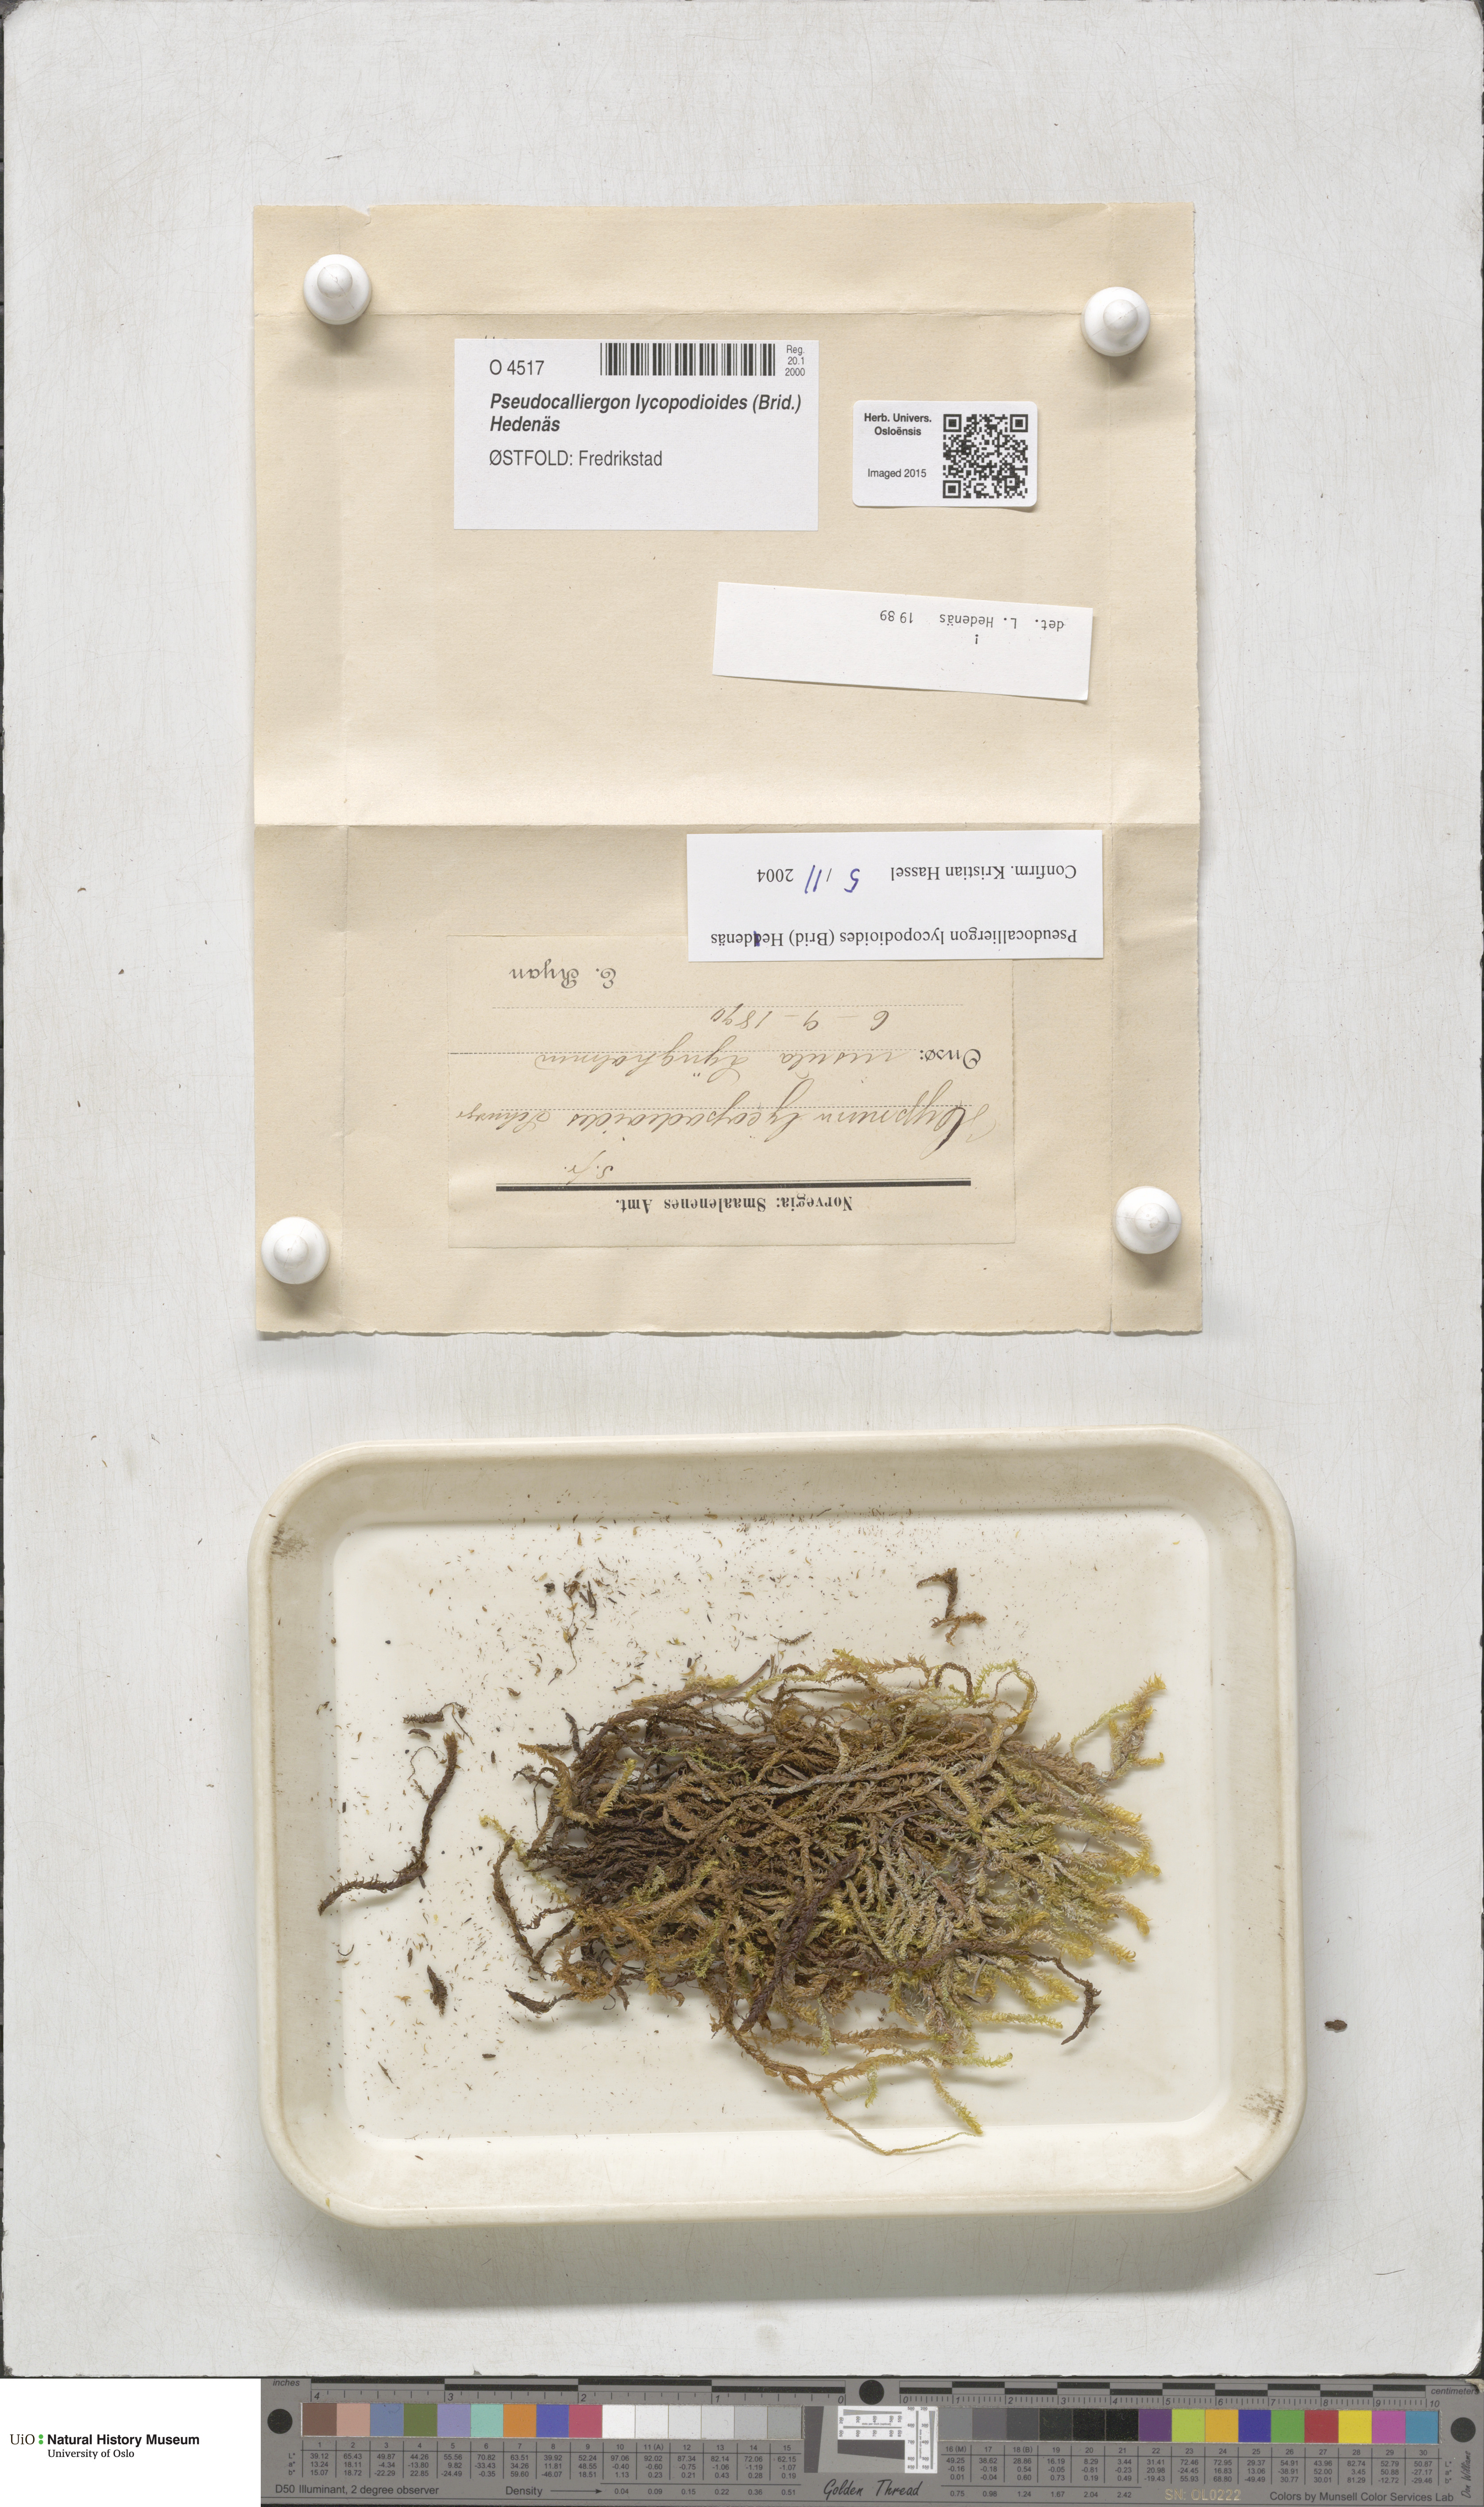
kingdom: Plantae
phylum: Bryophyta
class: Bryopsida
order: Hypnales
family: Amblystegiaceae
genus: Drepanocladus
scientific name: Drepanocladus lycopodioides
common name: Large hook-moss
